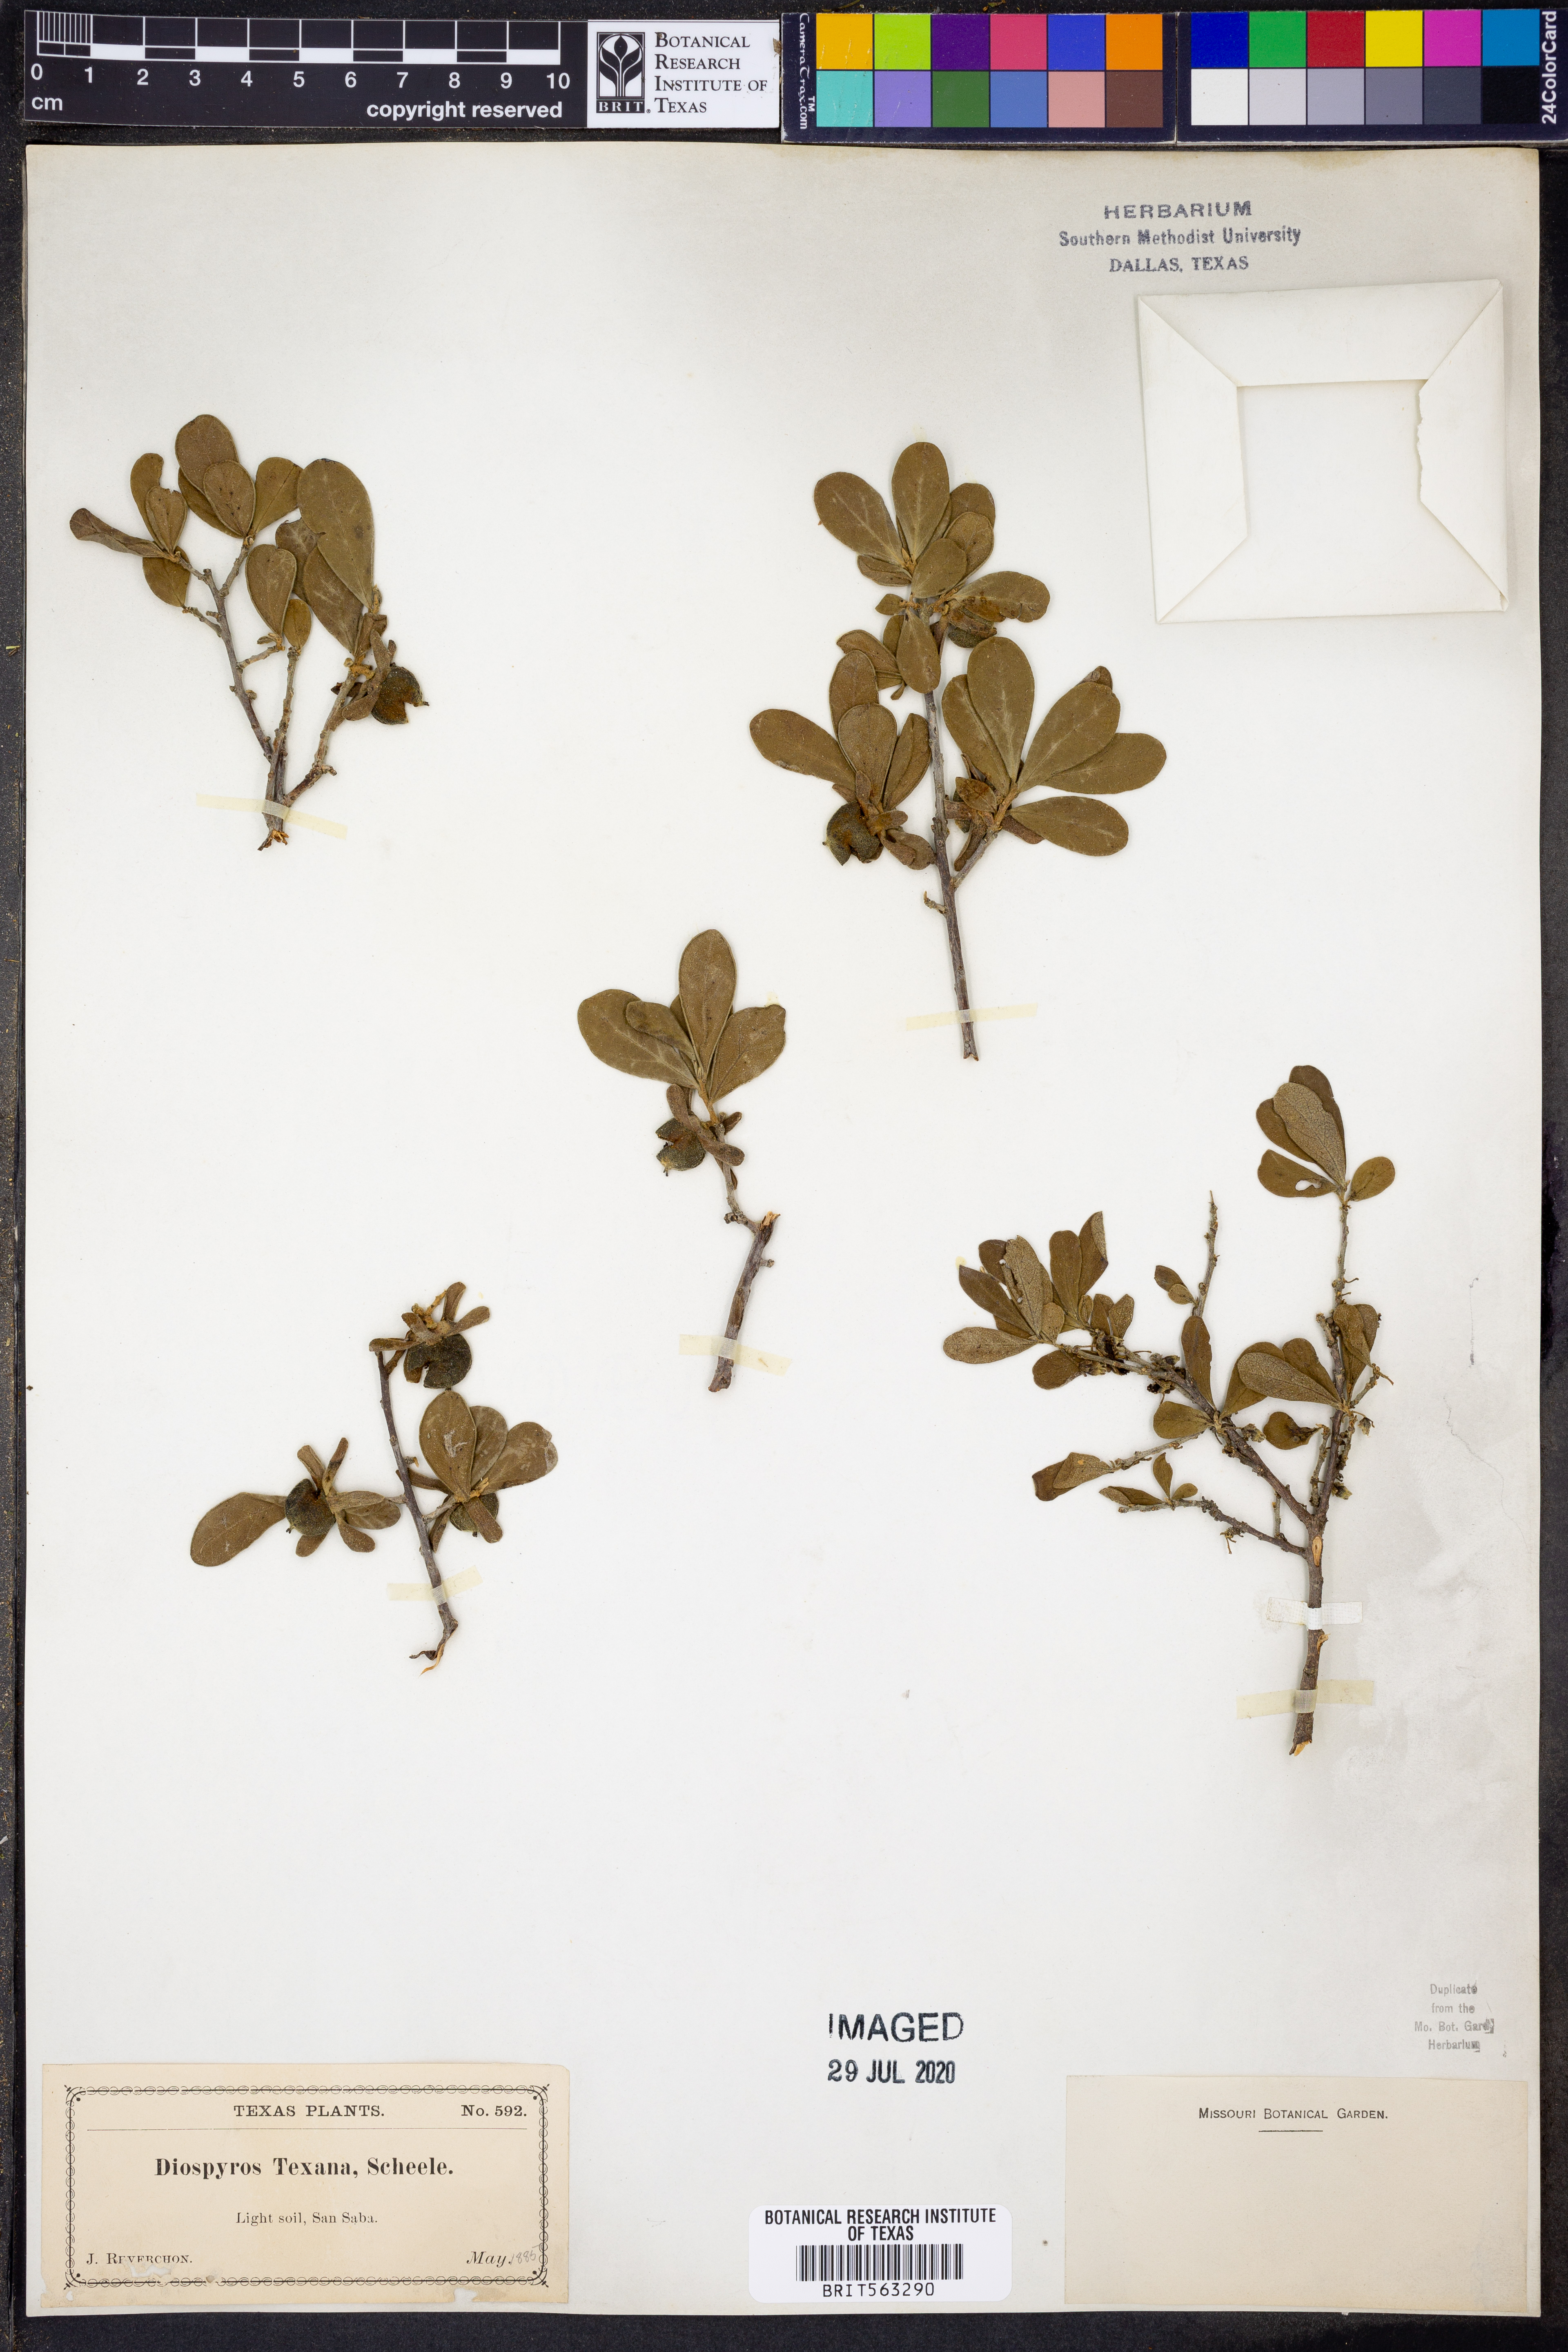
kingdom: Plantae
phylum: Tracheophyta
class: Magnoliopsida
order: Ericales
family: Ebenaceae
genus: Diospyros
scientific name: Diospyros texana
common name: Texas persimmon
